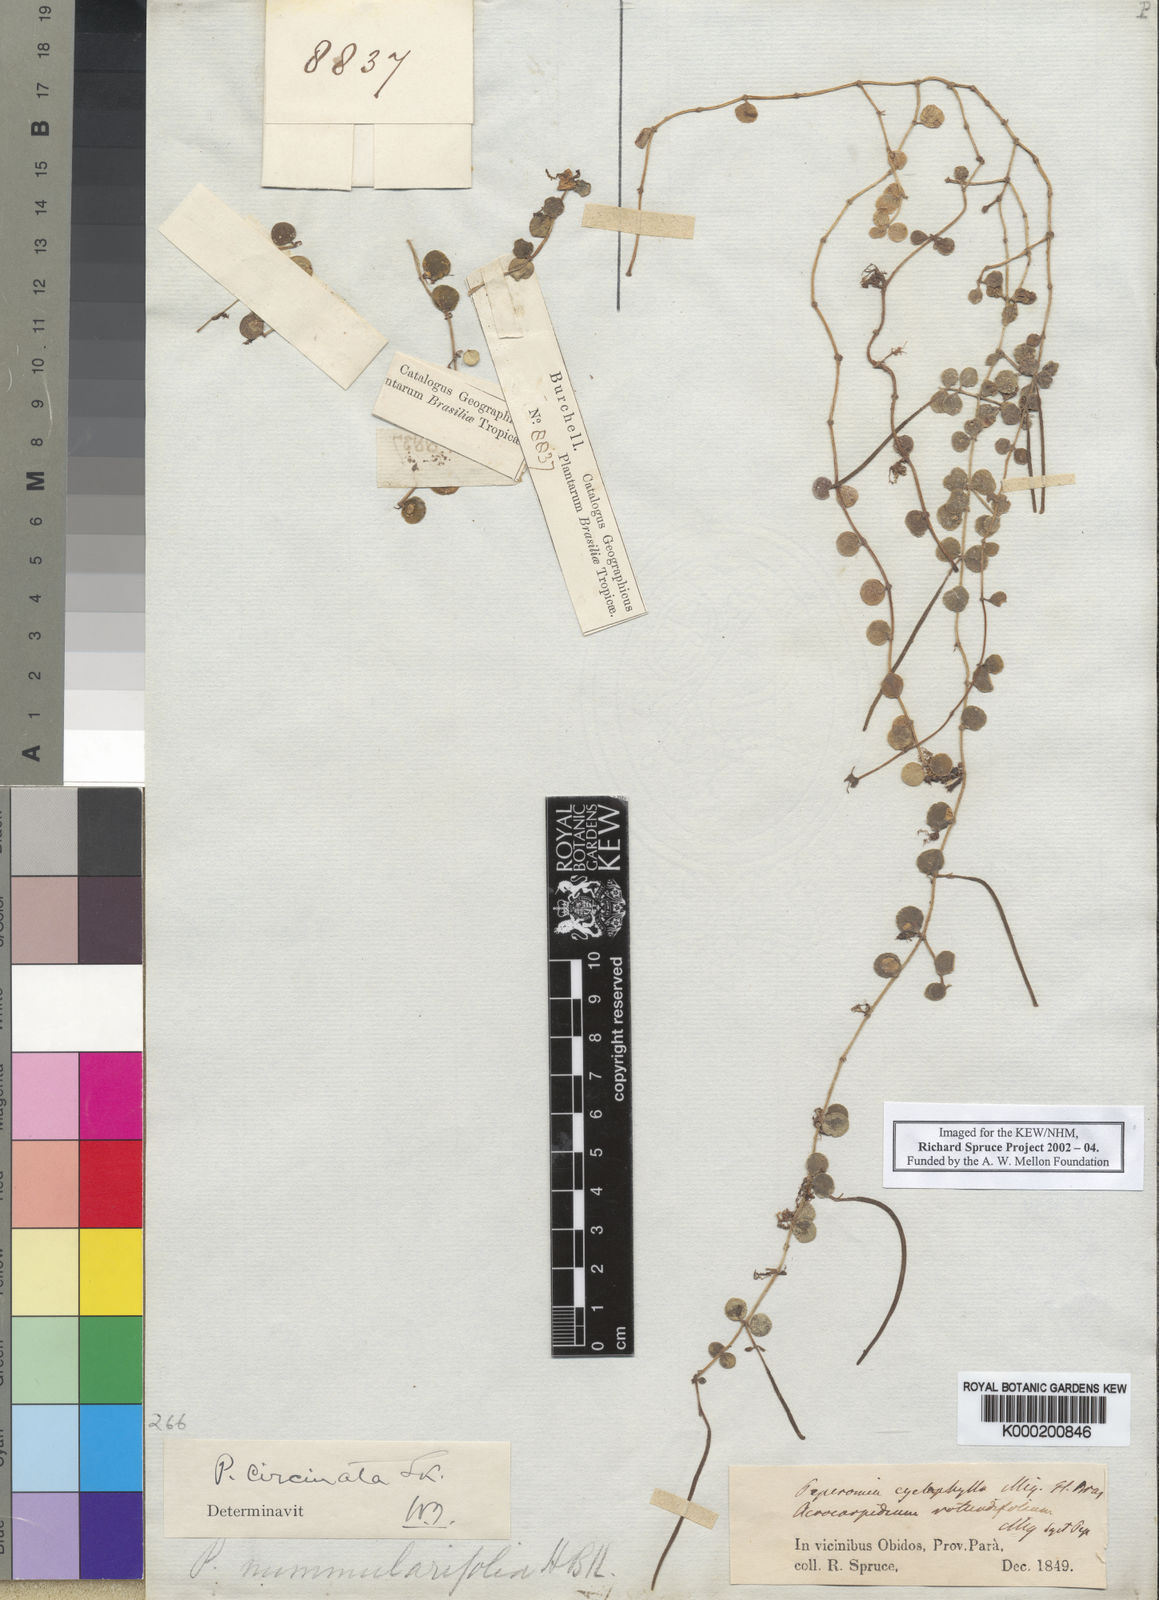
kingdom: Plantae
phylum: Tracheophyta
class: Magnoliopsida
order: Piperales
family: Piperaceae
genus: Peperomia
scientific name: Peperomia cyclophylla
